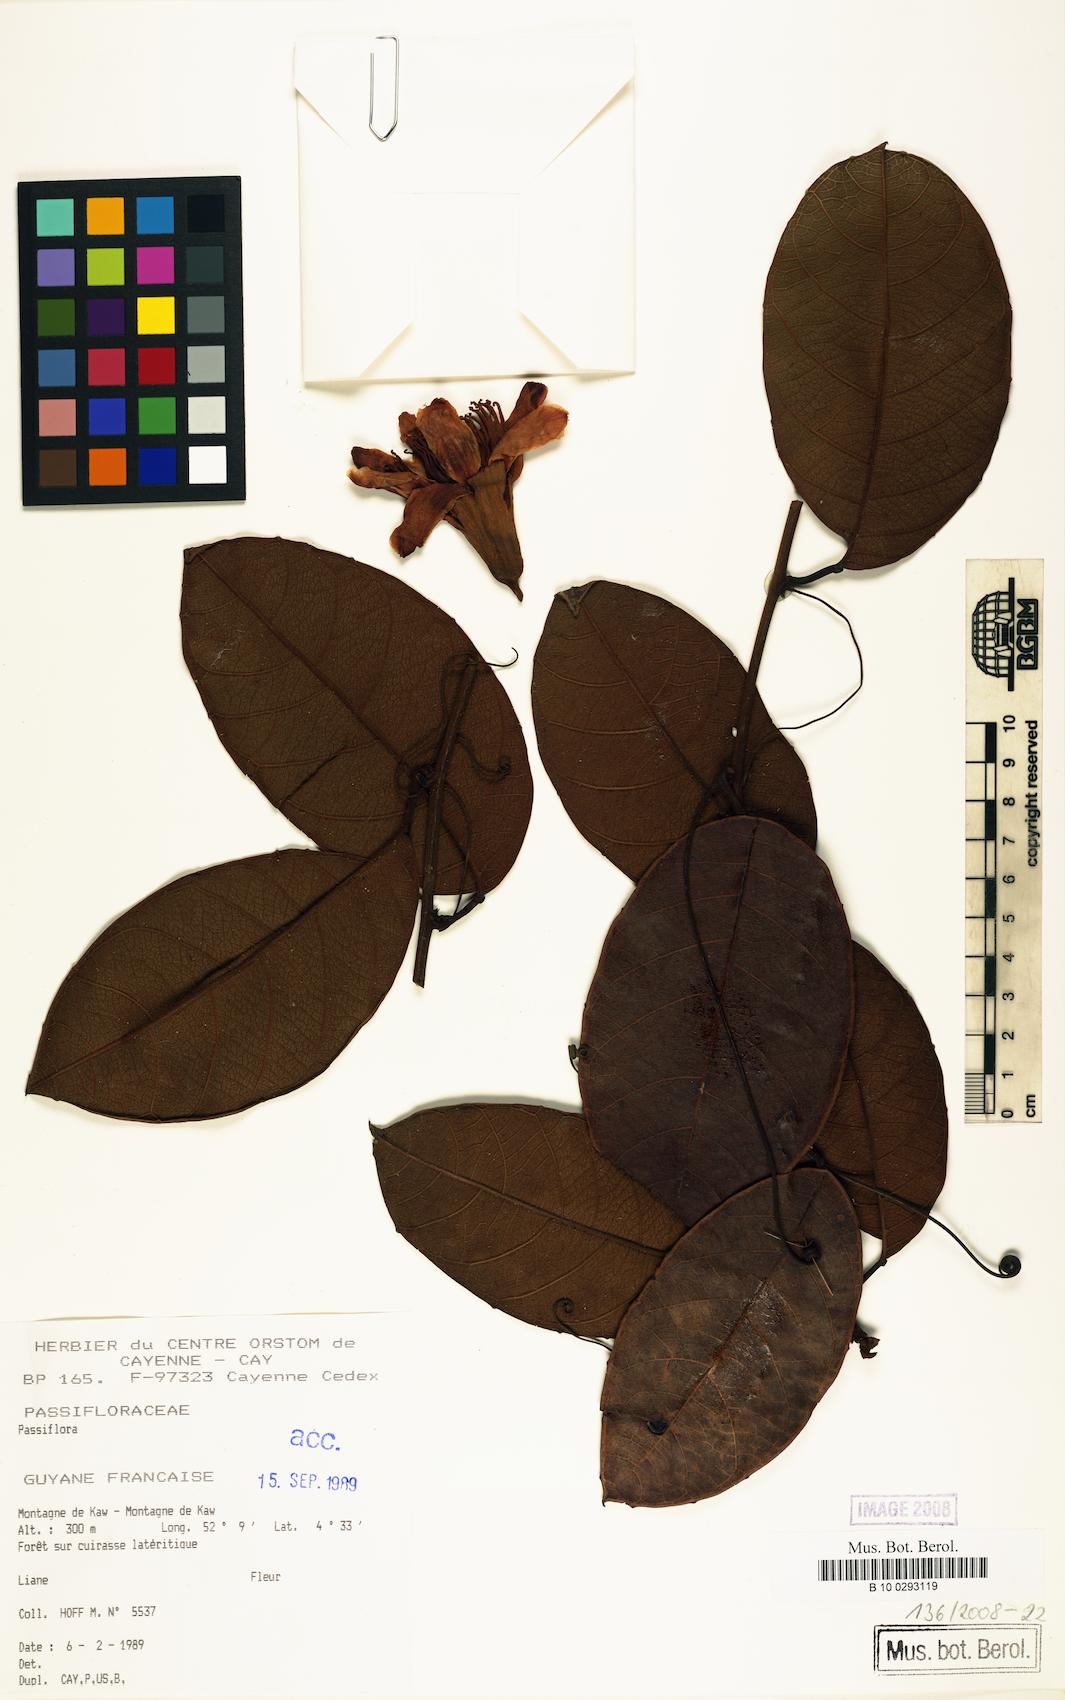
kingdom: Plantae
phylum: Tracheophyta
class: Magnoliopsida
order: Malpighiales
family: Passifloraceae
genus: Passiflora
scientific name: Passiflora candida
